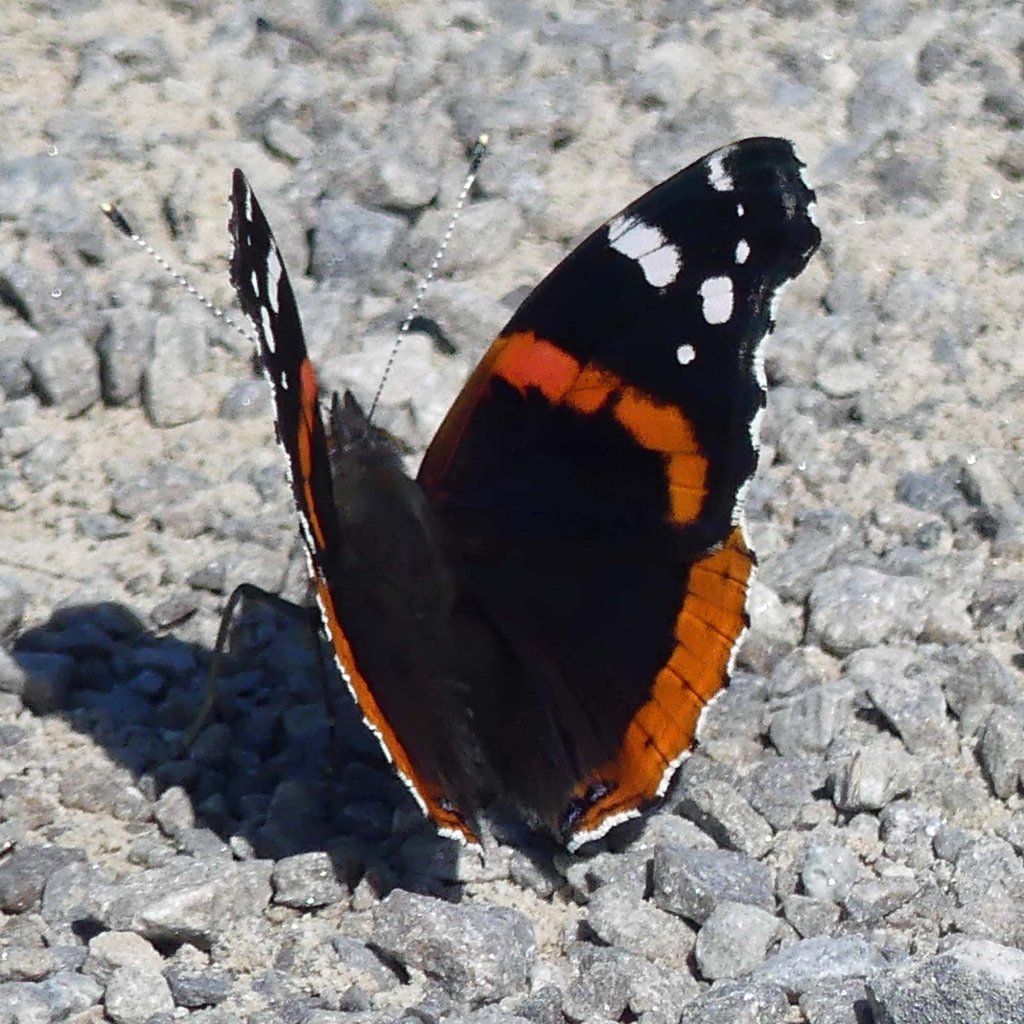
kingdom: Animalia
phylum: Arthropoda
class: Insecta
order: Lepidoptera
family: Nymphalidae
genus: Vanessa
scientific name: Vanessa atalanta
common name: Red Admiral
